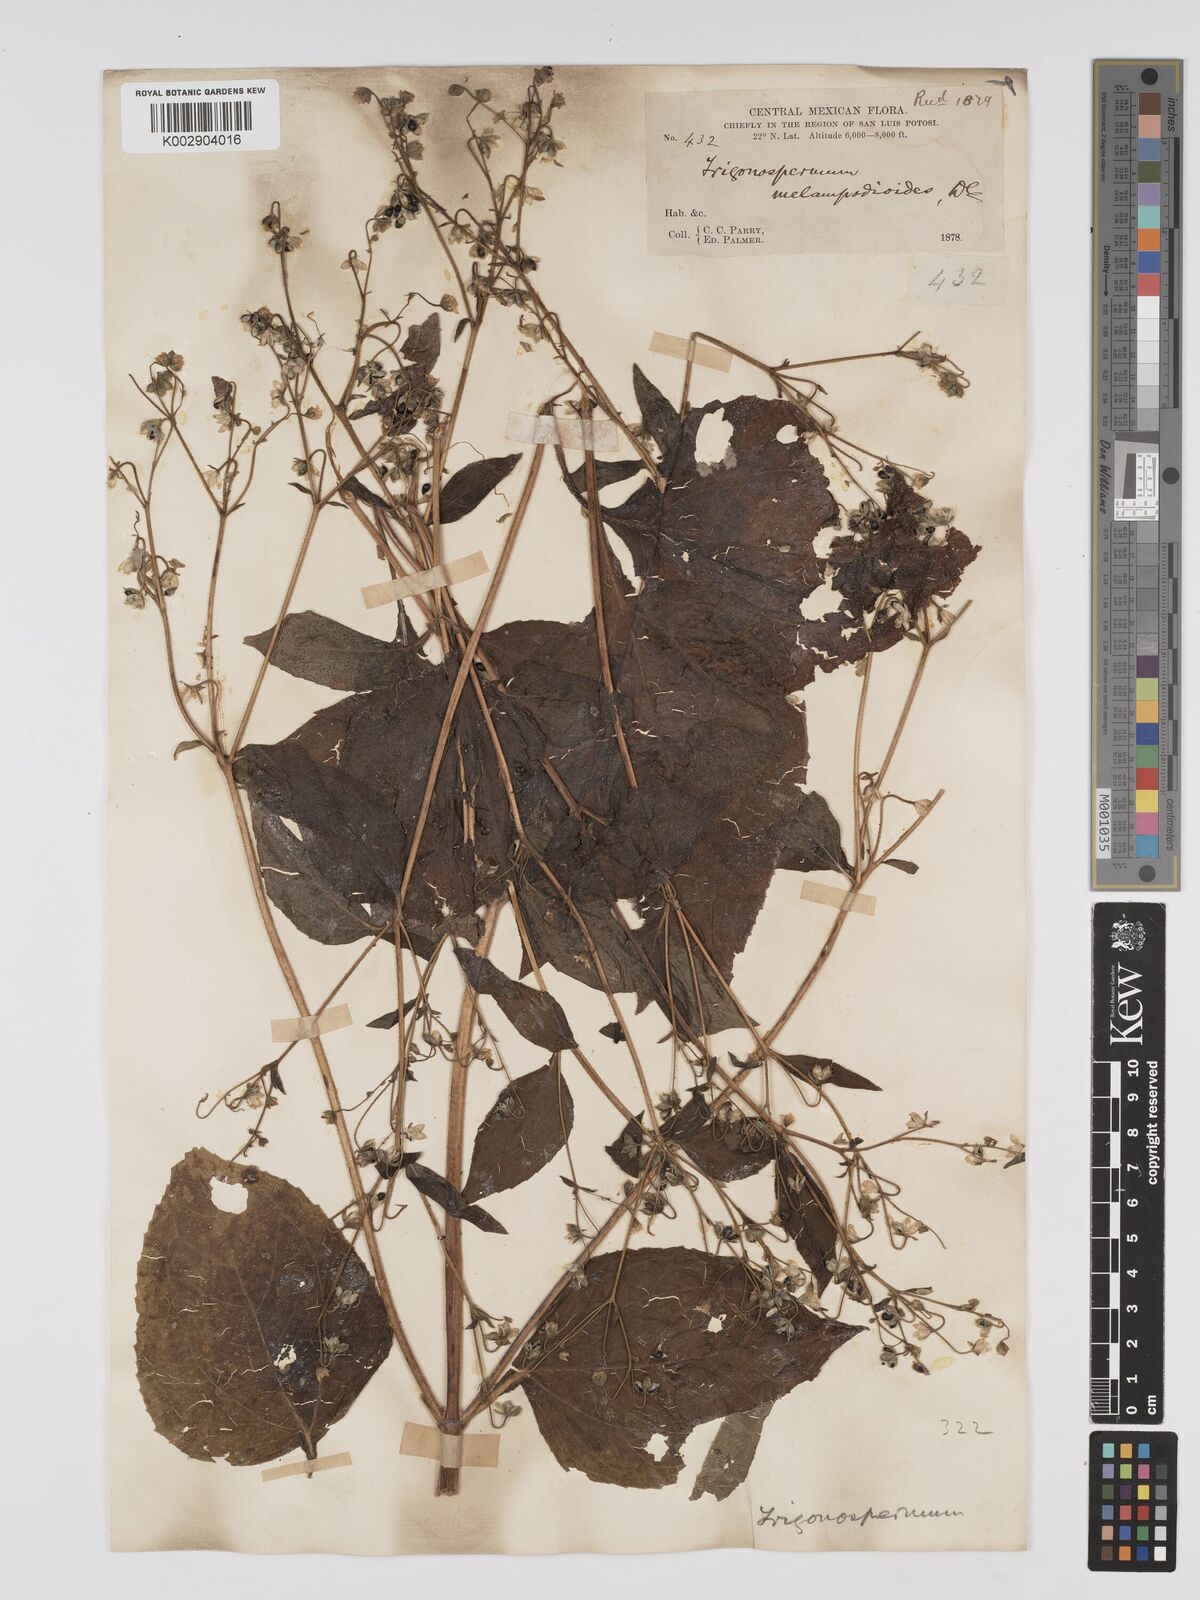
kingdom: Plantae
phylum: Tracheophyta
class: Magnoliopsida
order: Asterales
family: Asteraceae
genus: Trigonospermum
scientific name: Trigonospermum melampodioides
